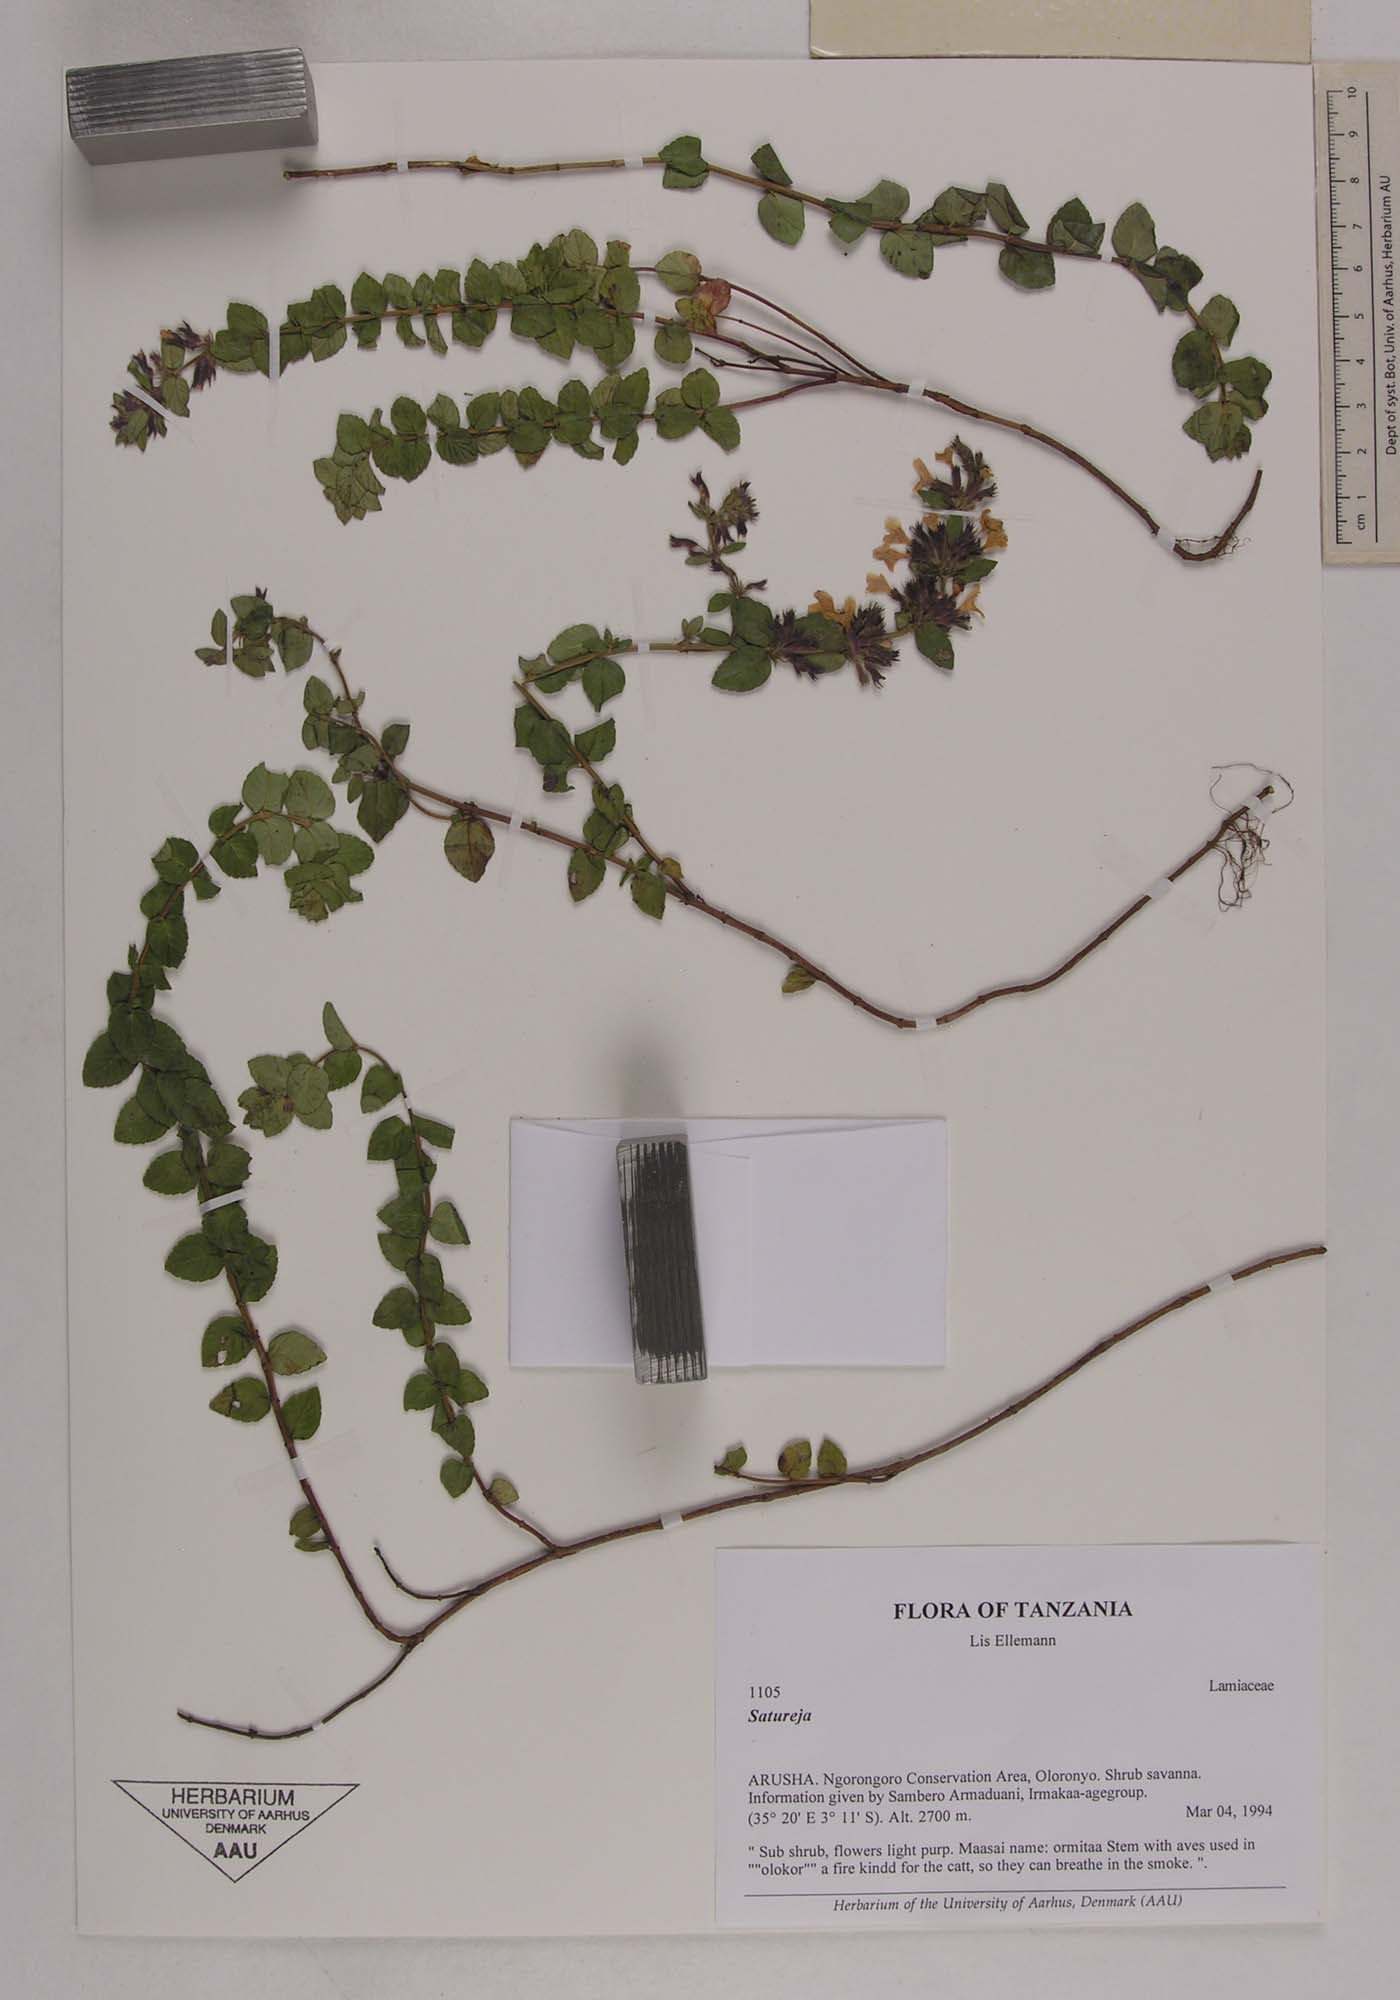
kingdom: Plantae
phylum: Tracheophyta
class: Magnoliopsida
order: Lamiales
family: Lamiaceae
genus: Satureja
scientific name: Satureja
